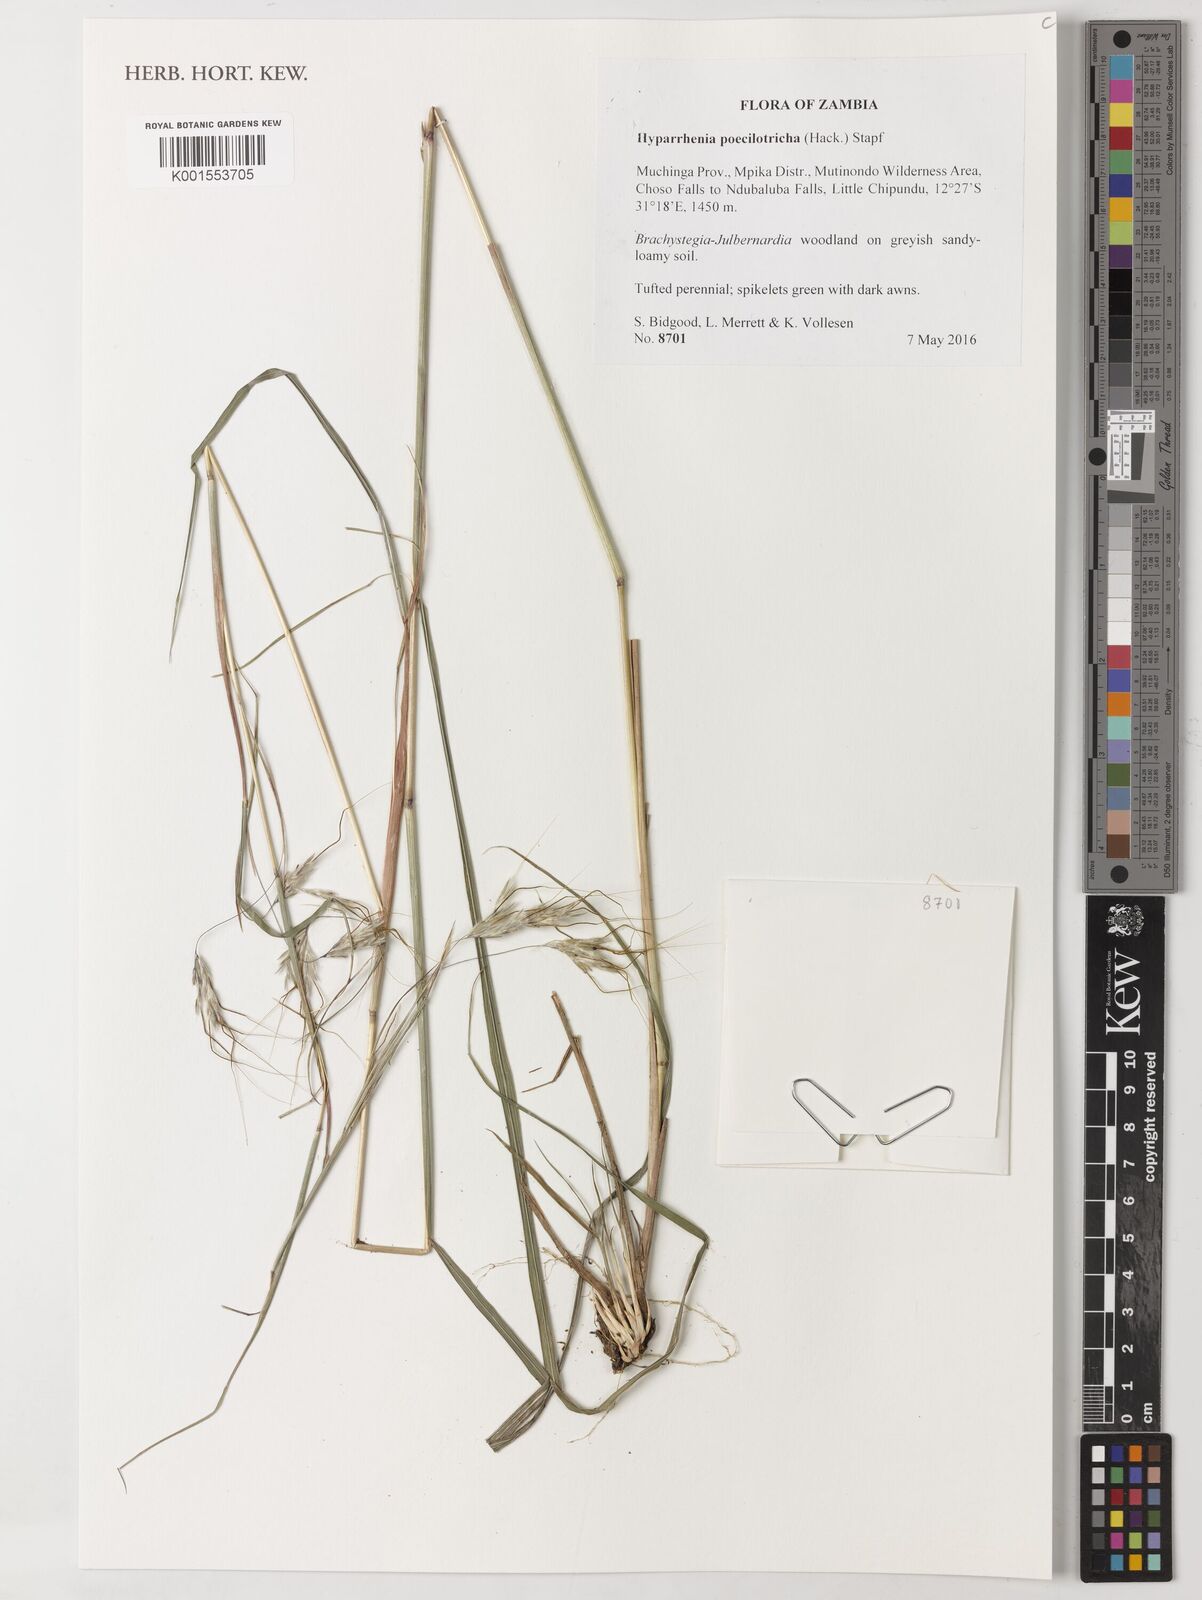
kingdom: Plantae
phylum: Tracheophyta
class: Liliopsida
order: Poales
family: Poaceae
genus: Hyparrhenia
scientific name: Hyparrhenia poecilotricha
